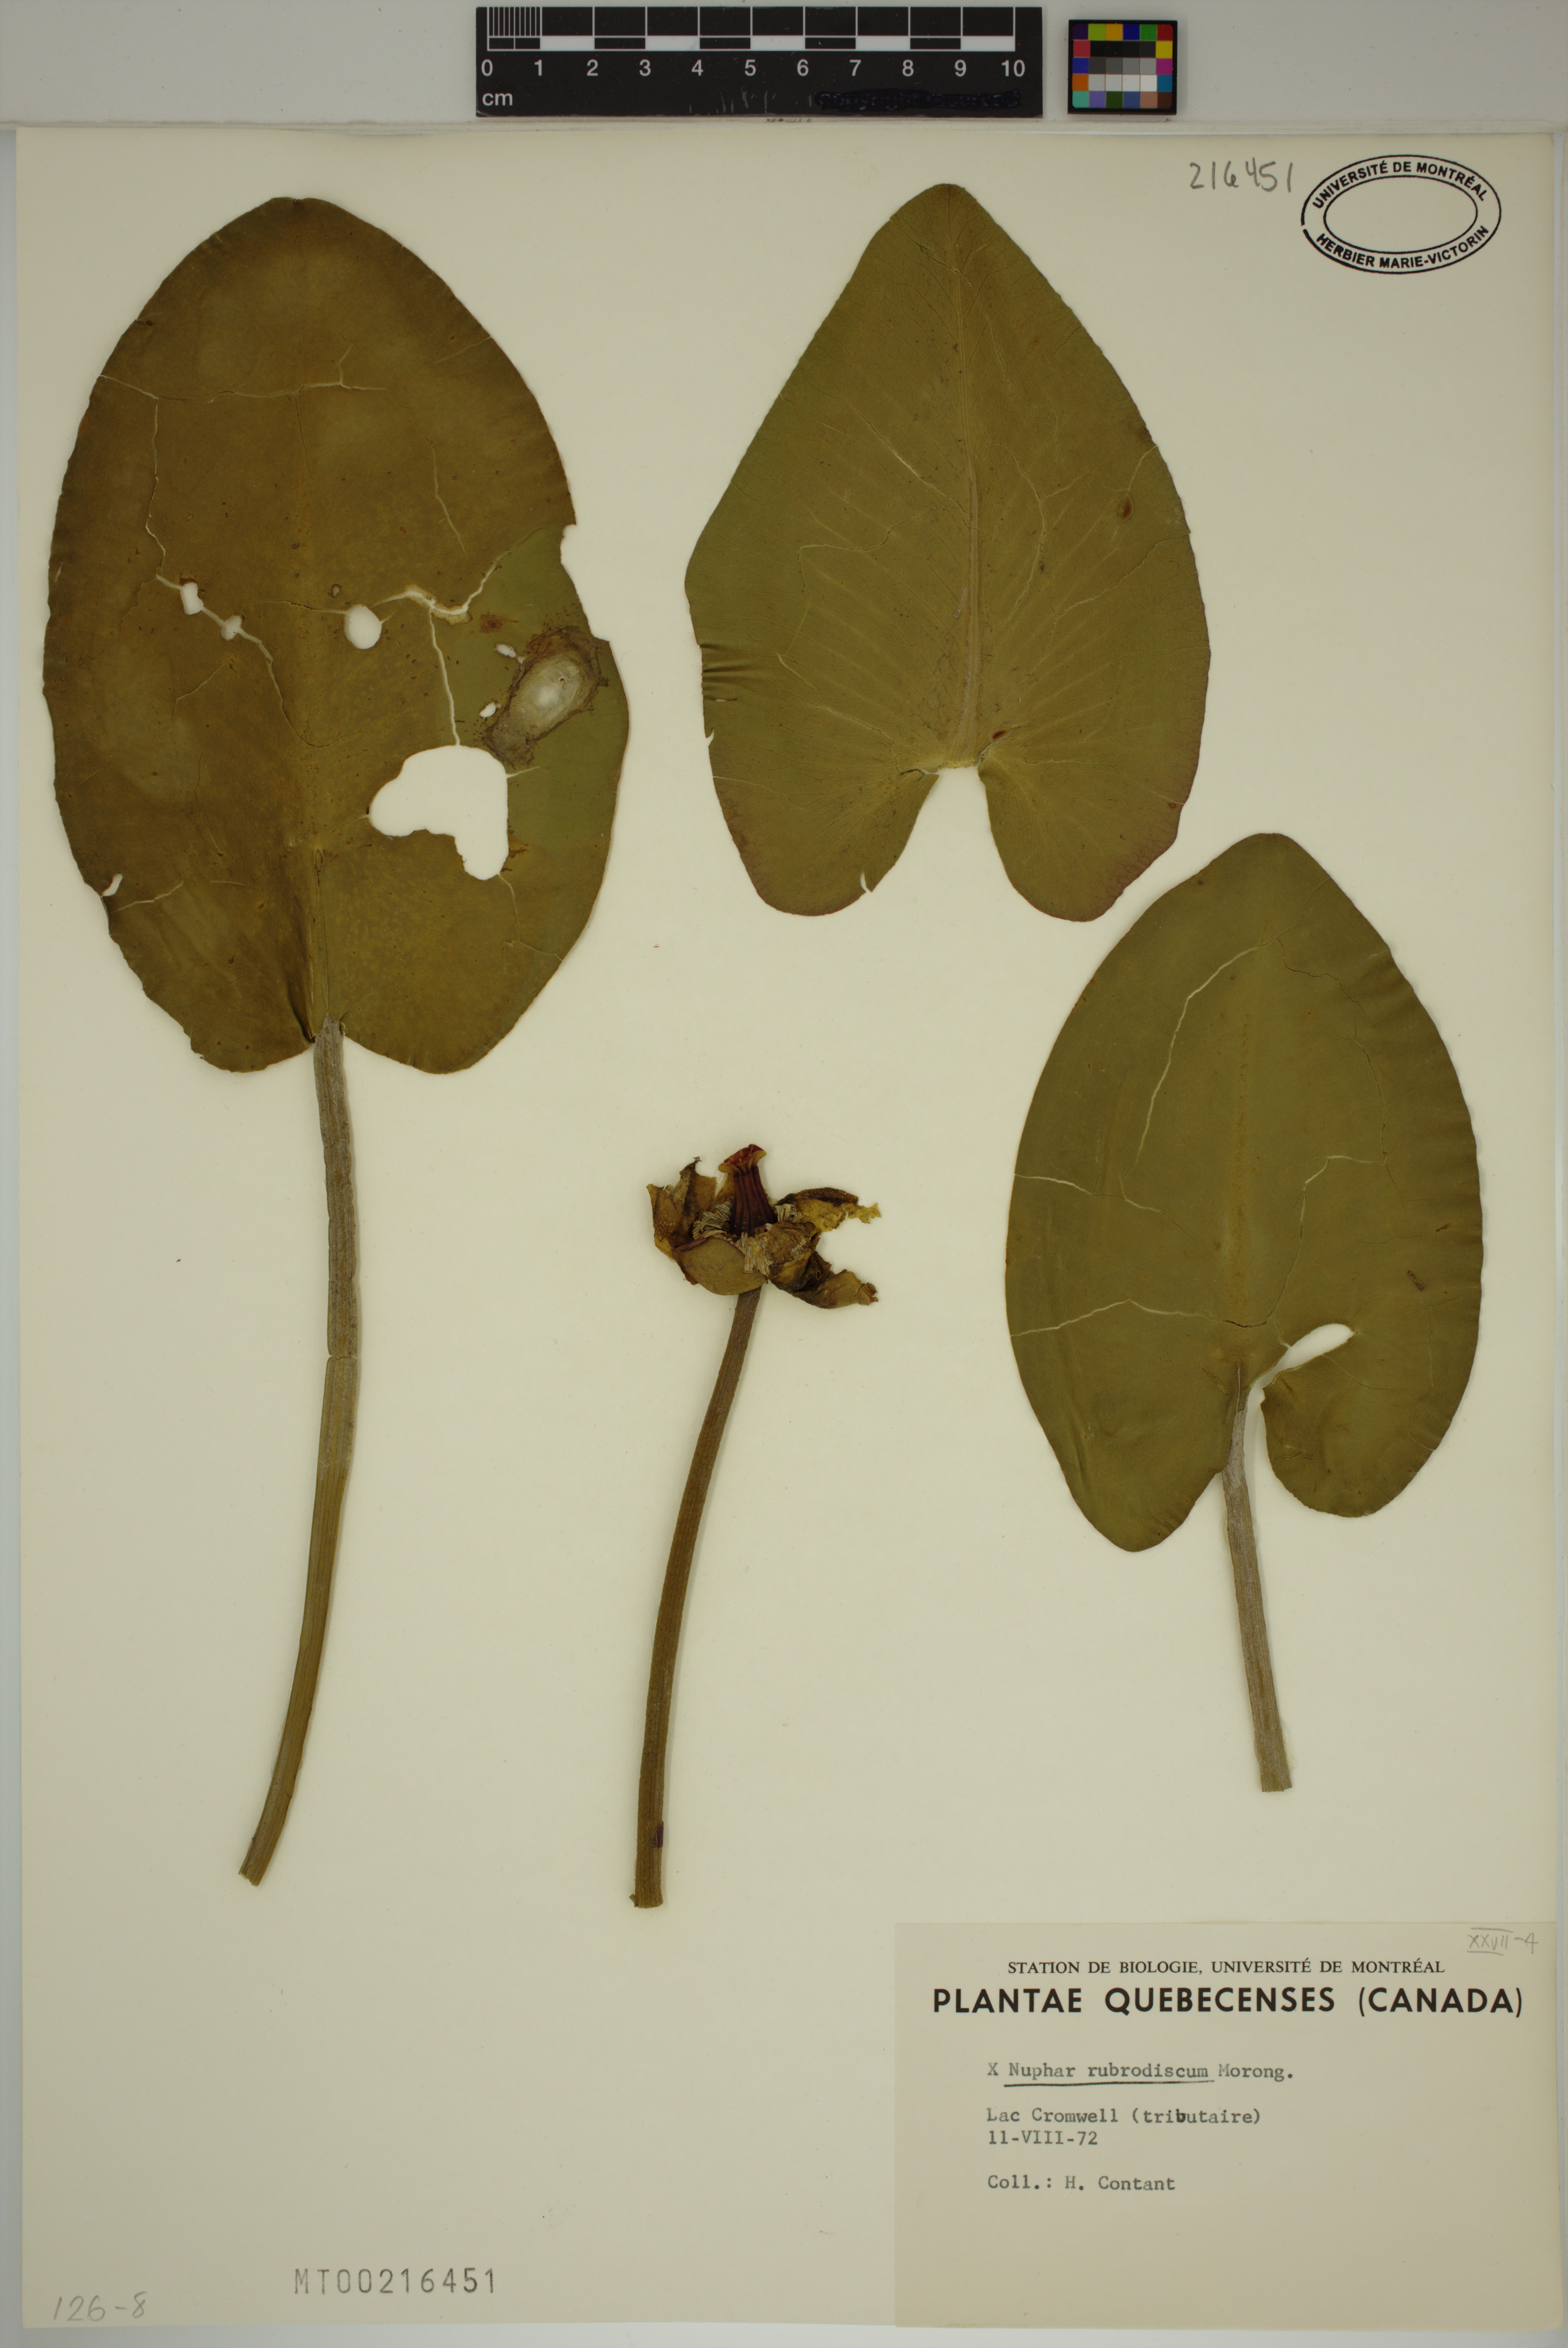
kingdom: Plantae
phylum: Tracheophyta
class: Magnoliopsida
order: Nymphaeales
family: Nymphaeaceae
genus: Nuphar
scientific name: Nuphar rubrodisca
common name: Yellow pond-lily
